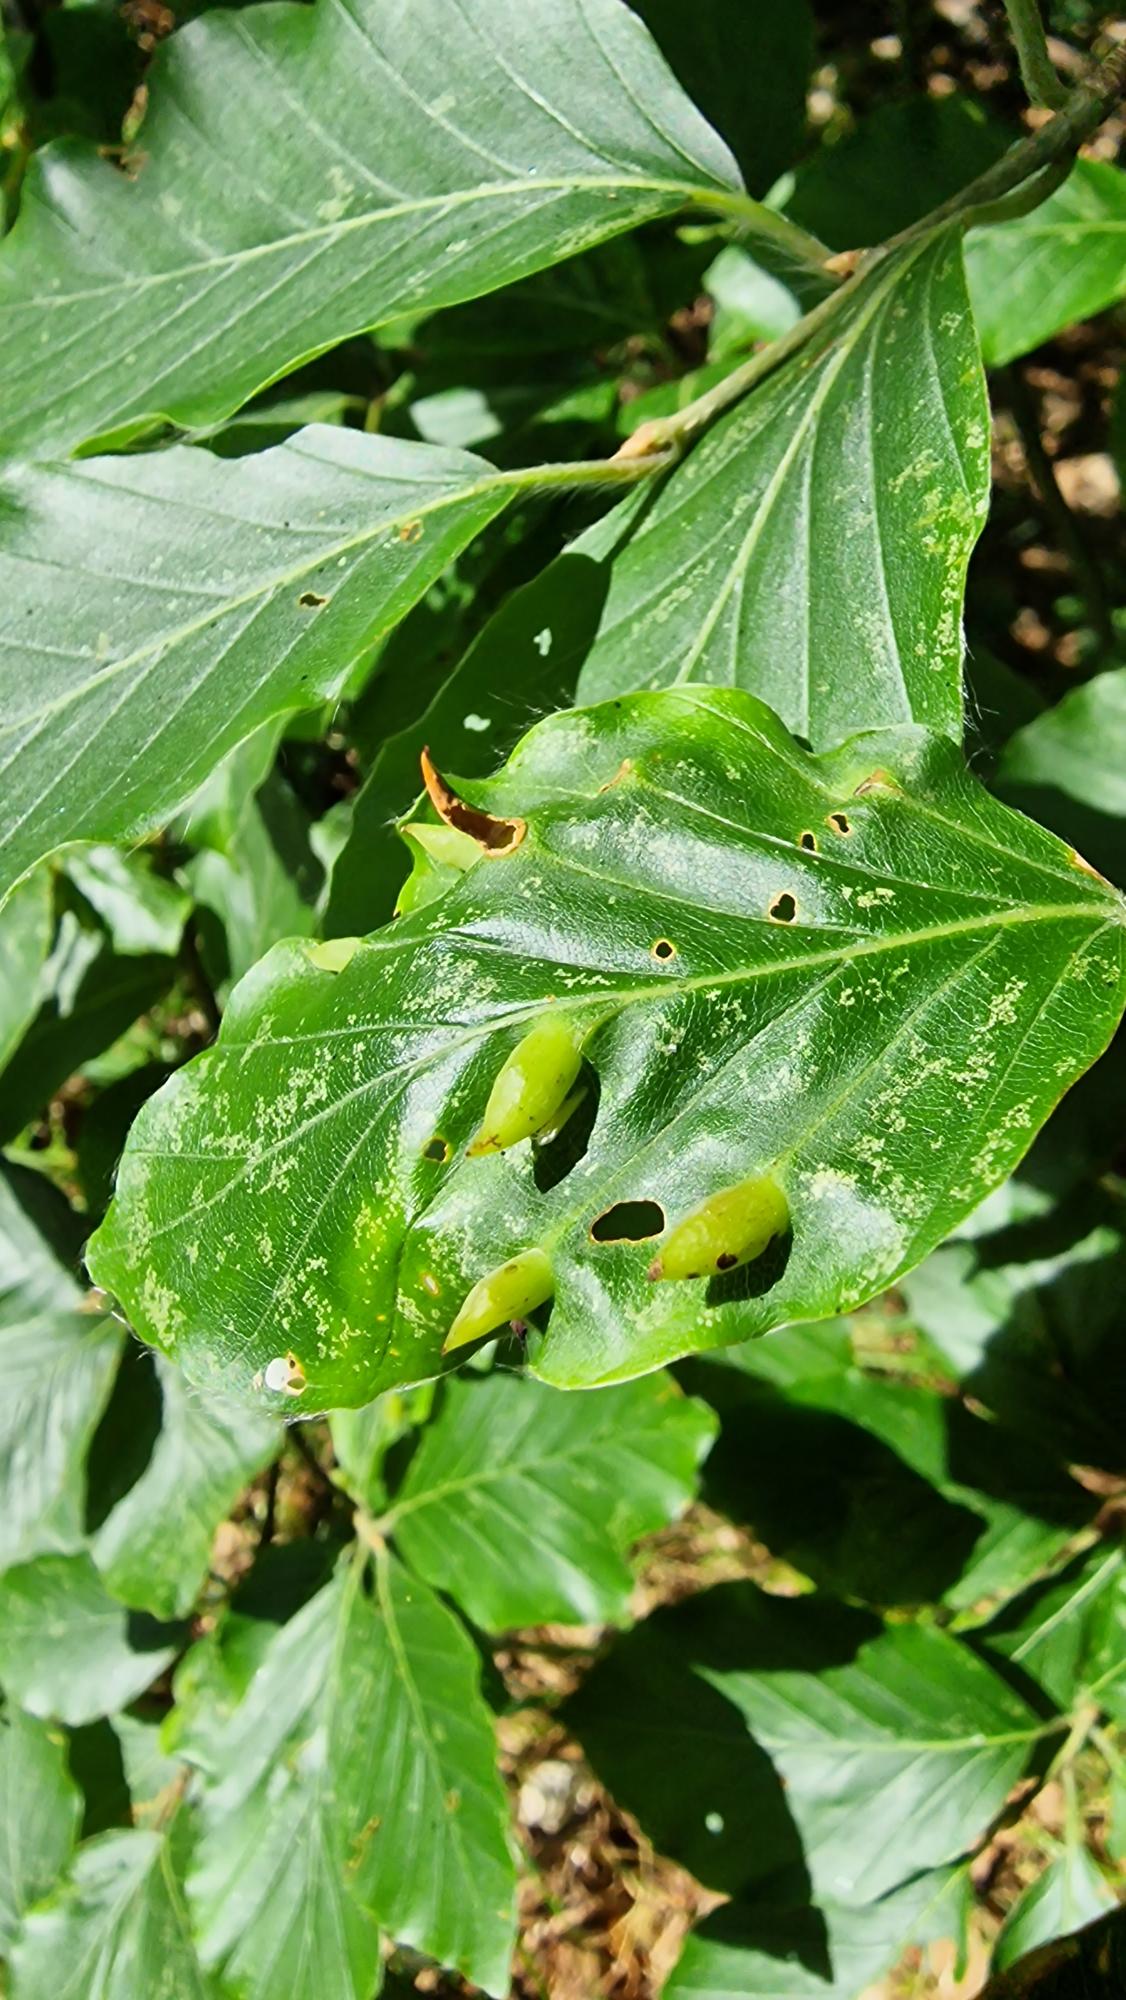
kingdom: Animalia
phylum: Arthropoda
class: Insecta
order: Diptera
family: Cecidomyiidae
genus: Mikiola
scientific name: Mikiola fagi
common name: Bøgegalmyg
